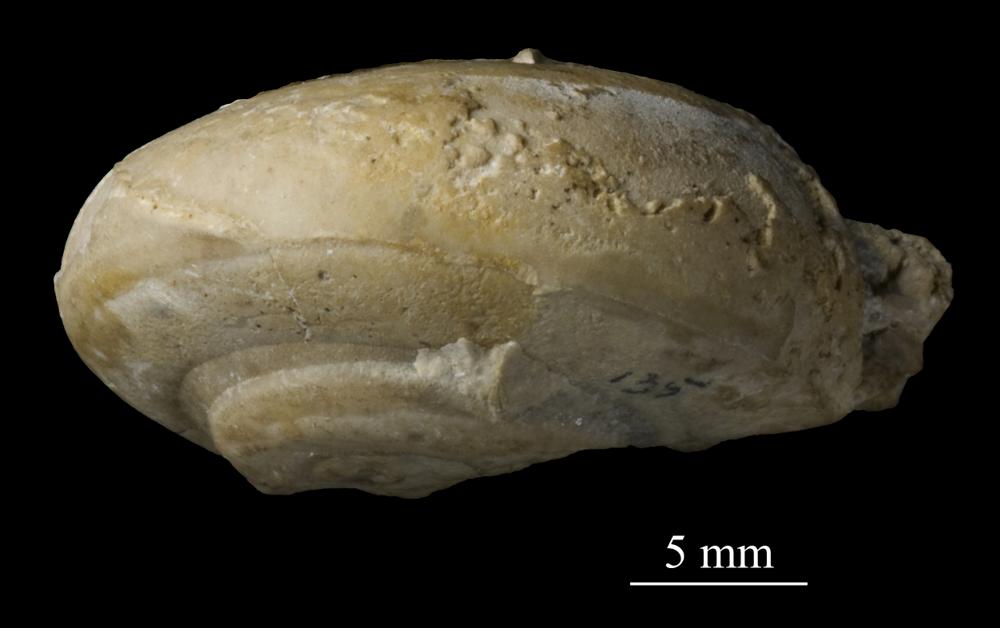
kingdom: Animalia
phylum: Mollusca
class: Gastropoda
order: Pleurotomariida
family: Gosseletinidae
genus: Latitaenia
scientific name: Latitaenia Pleurotomaria rotelloidea
